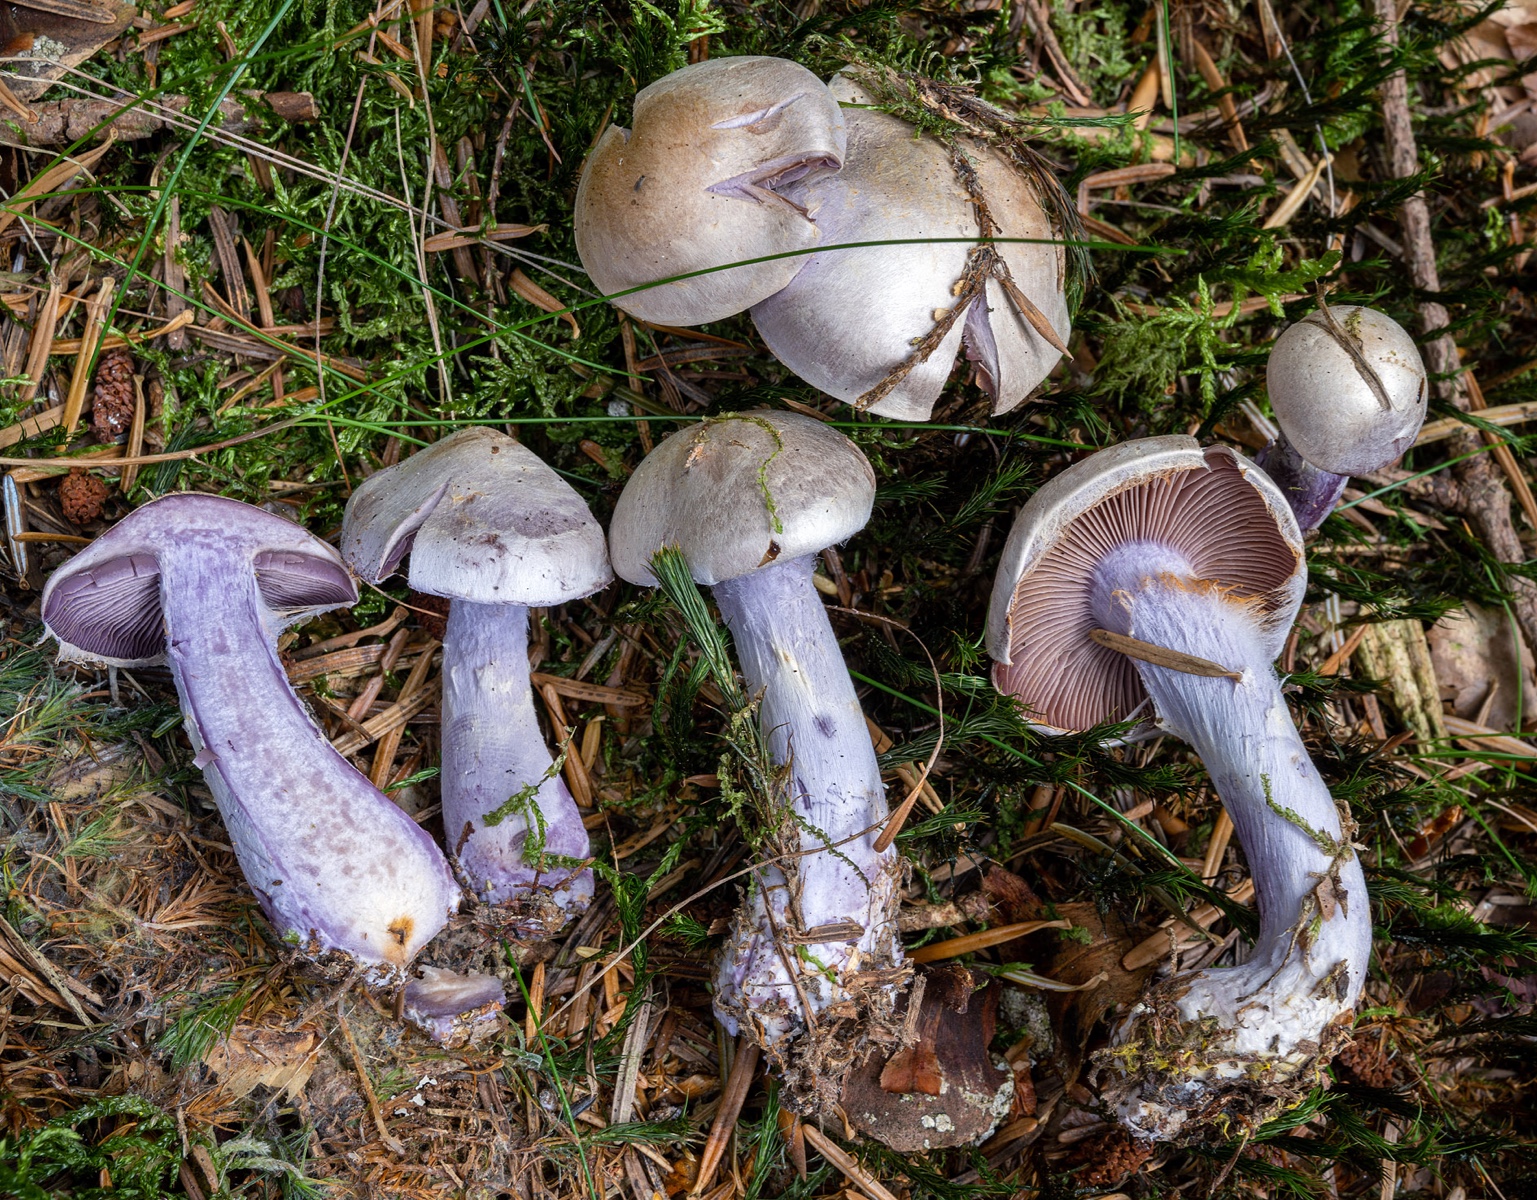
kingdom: Fungi
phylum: Basidiomycota
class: Agaricomycetes
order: Agaricales
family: Cortinariaceae
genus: Cortinarius
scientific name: Cortinarius camphoratus
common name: stinkende slørhat
